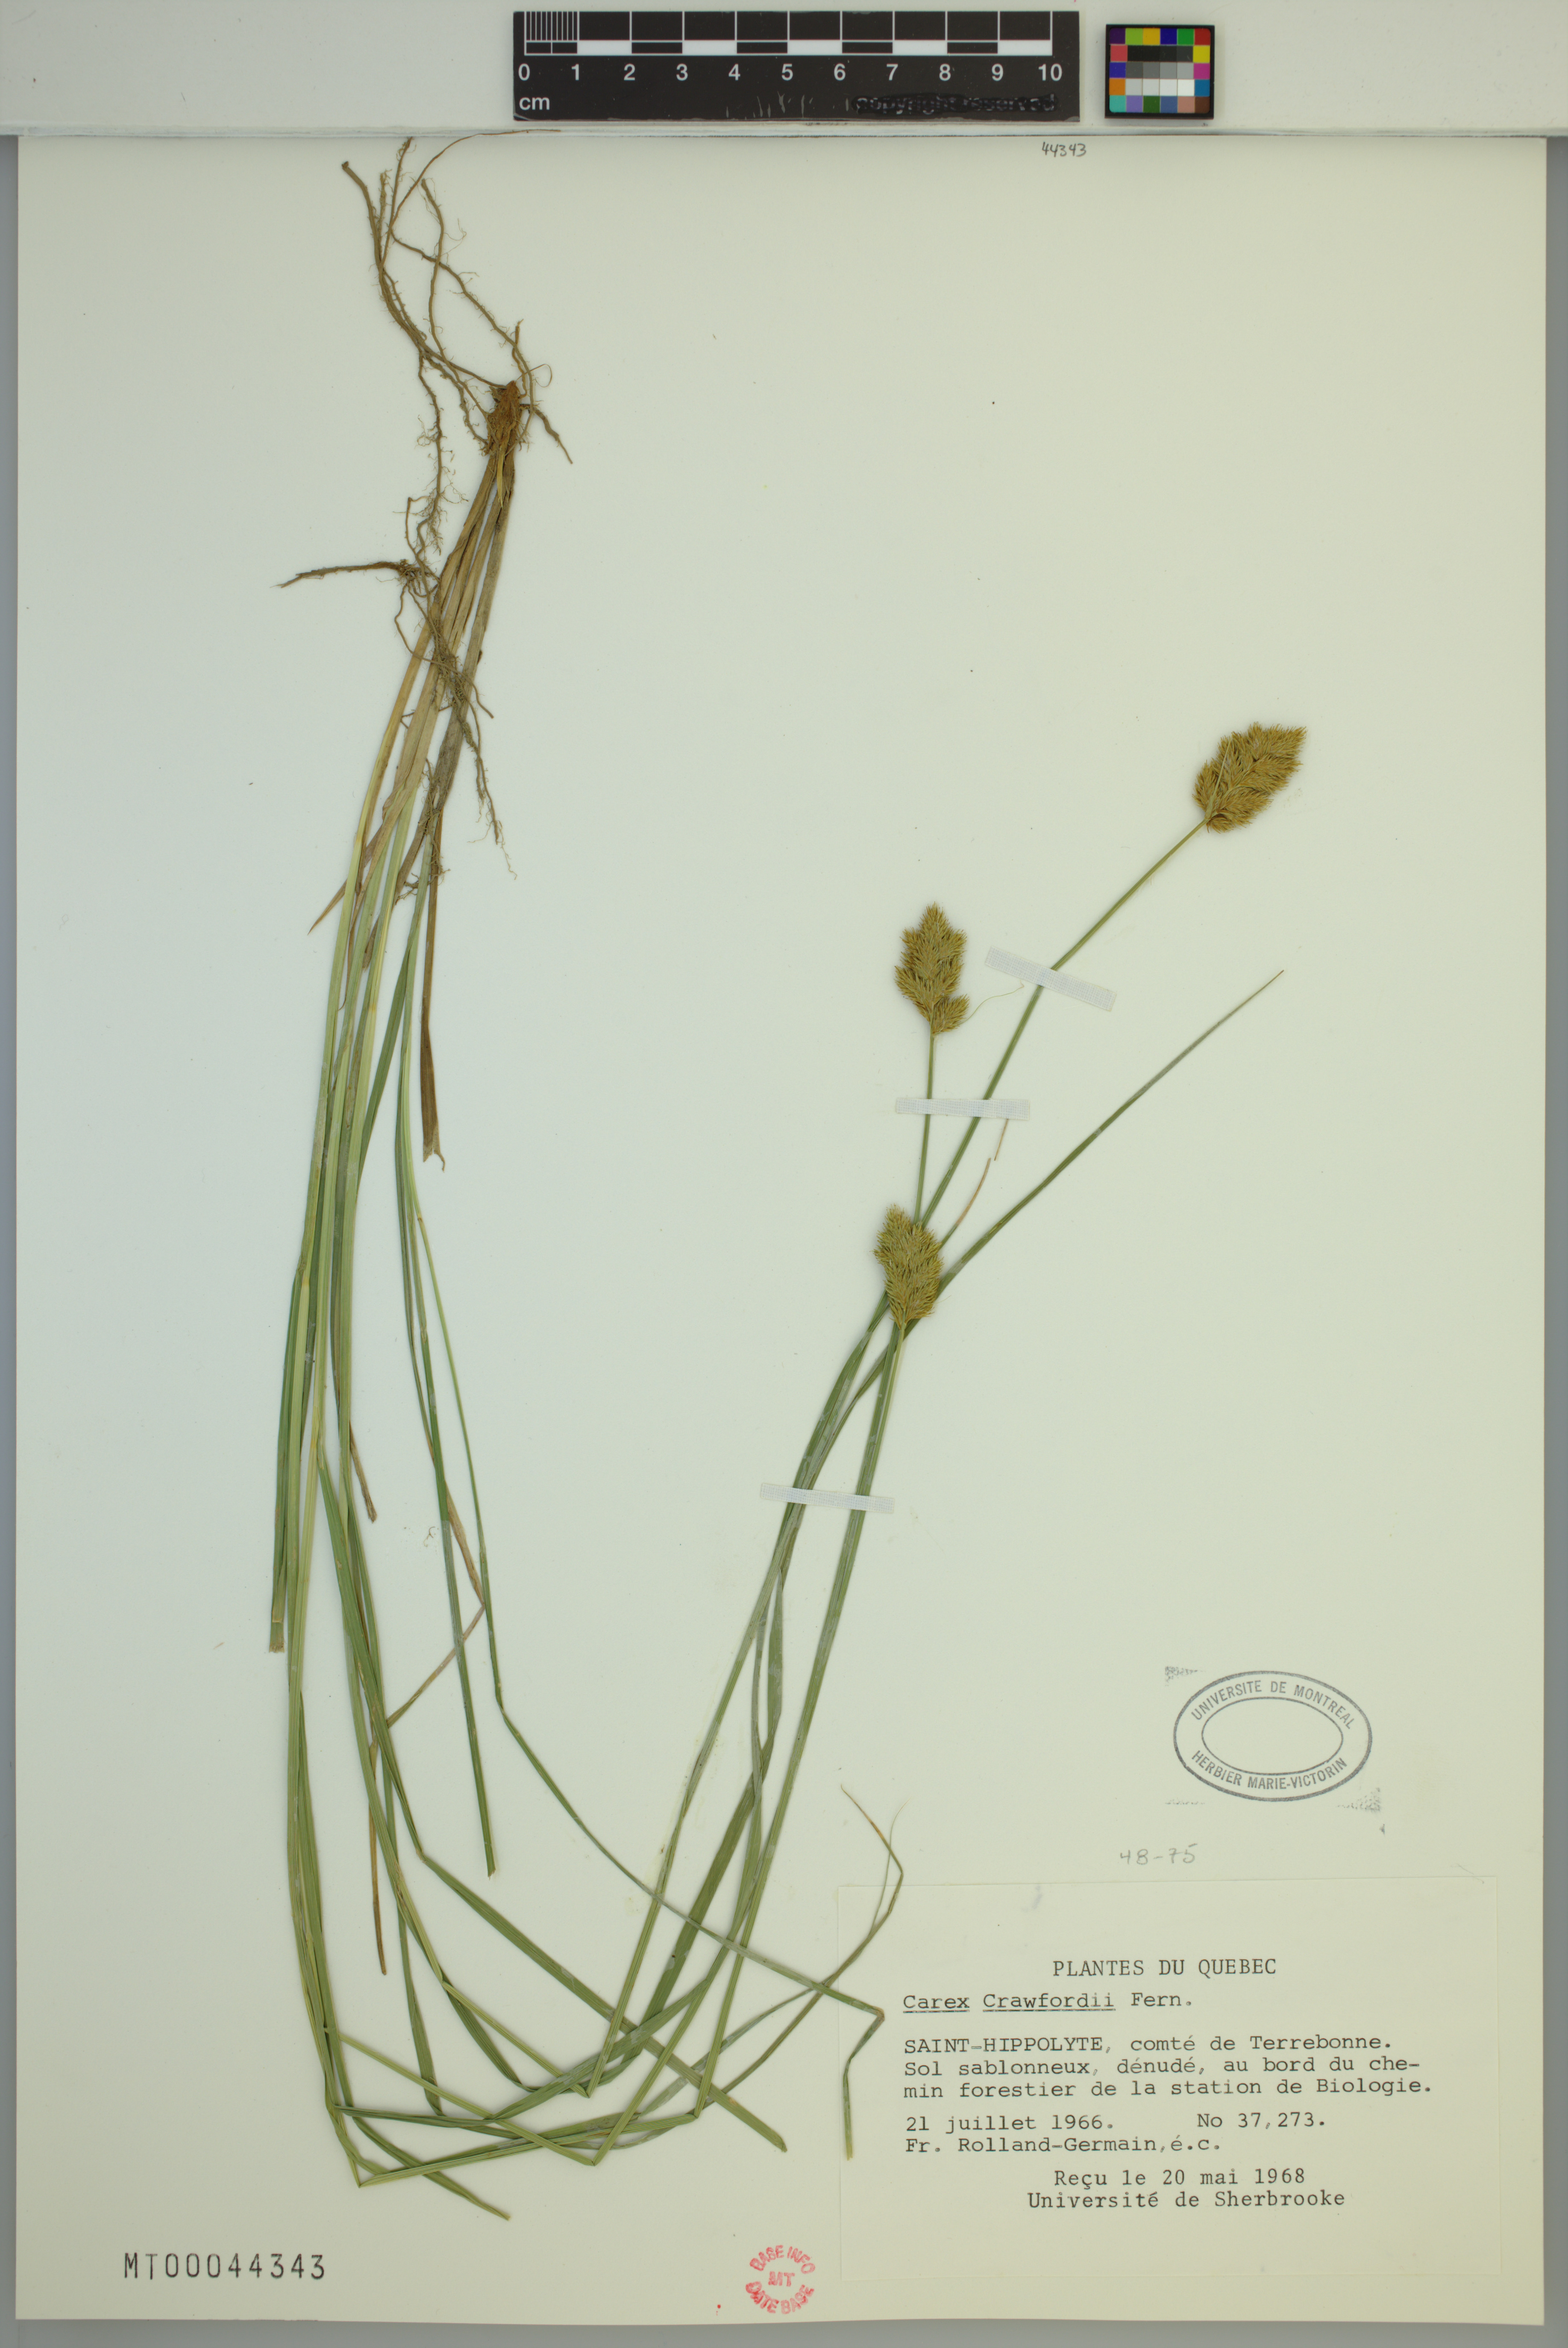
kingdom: Plantae
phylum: Tracheophyta
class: Liliopsida
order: Poales
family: Cyperaceae
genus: Carex
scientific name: Carex crawfordii
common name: Crawford's sedge
